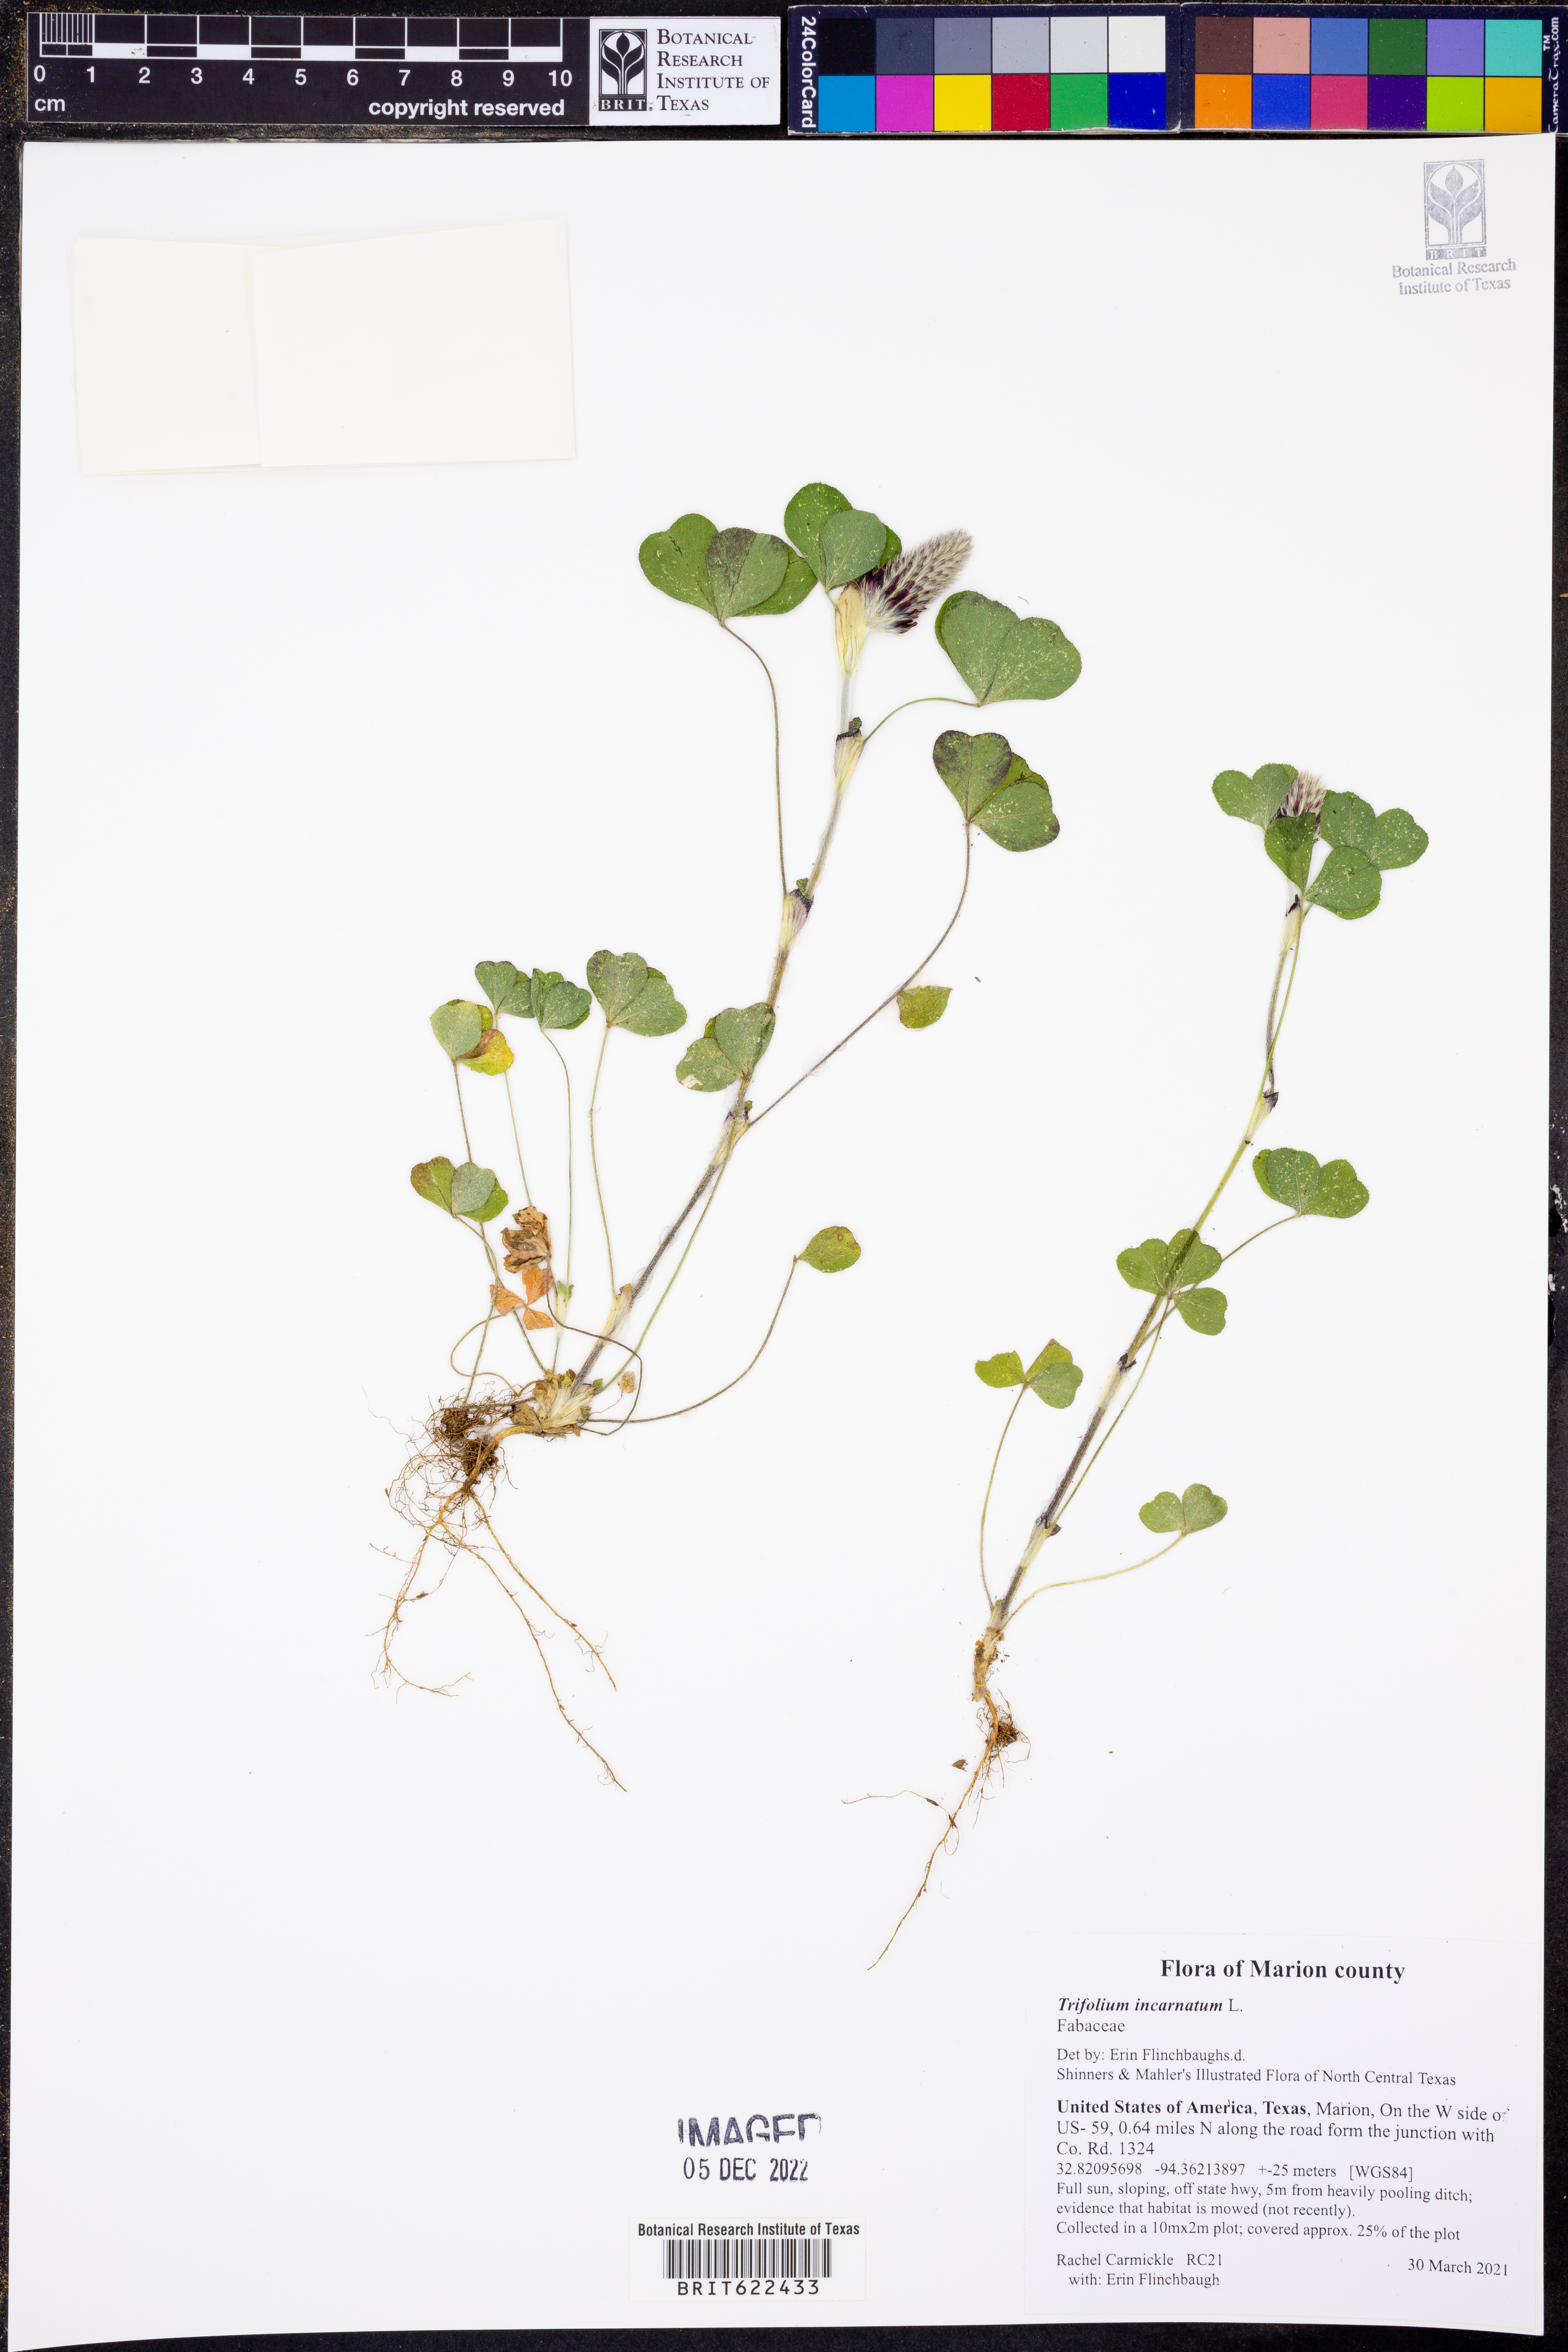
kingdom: Plantae
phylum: Tracheophyta
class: Magnoliopsida
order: Fabales
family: Fabaceae
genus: Trifolium
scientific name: Trifolium incarnatum
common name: Crimson clover
